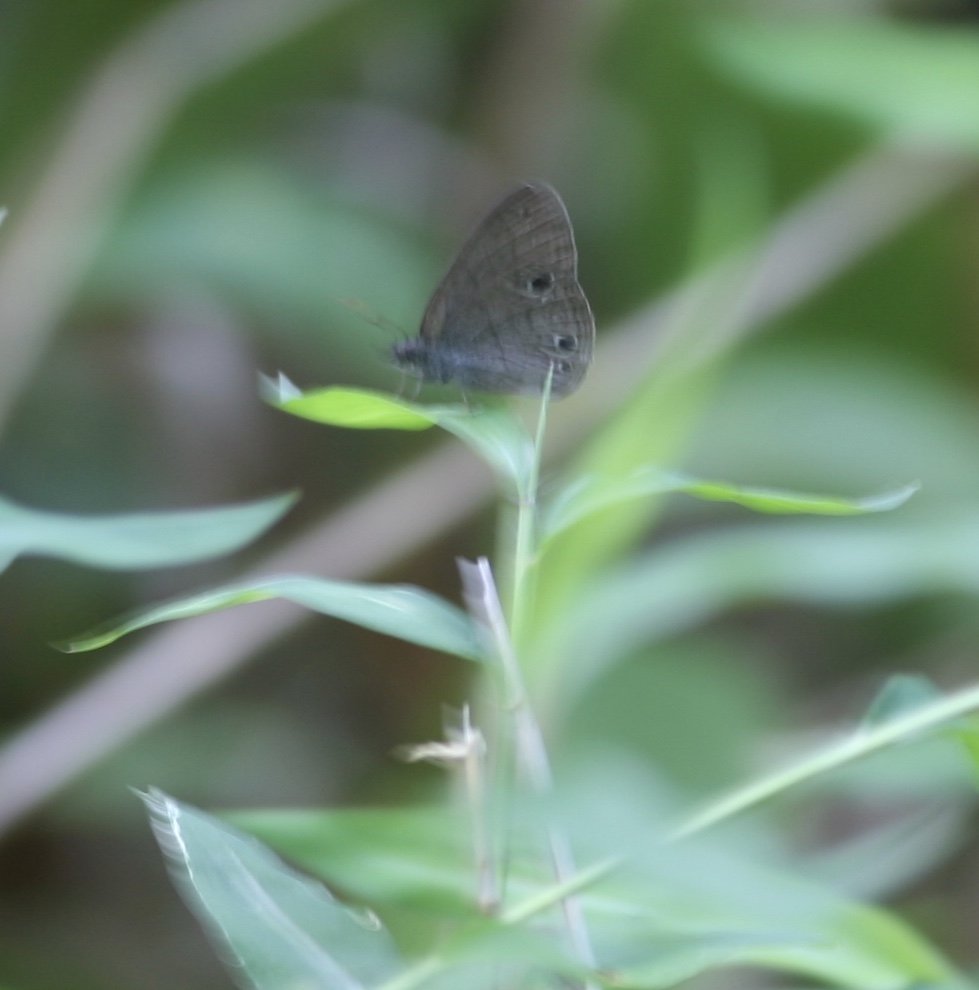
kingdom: Animalia
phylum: Arthropoda
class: Insecta
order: Lepidoptera
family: Nymphalidae
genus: Hermeuptychia
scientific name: Hermeuptychia hermes
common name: Carolina Satyr
